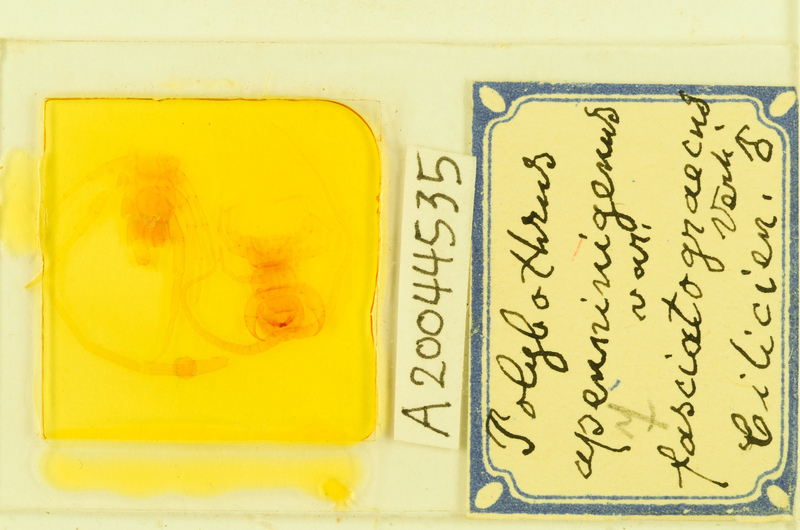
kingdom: Animalia
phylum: Arthropoda
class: Chilopoda
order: Lithobiomorpha
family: Lithobiidae
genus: Polybothrus
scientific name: Polybothrus
